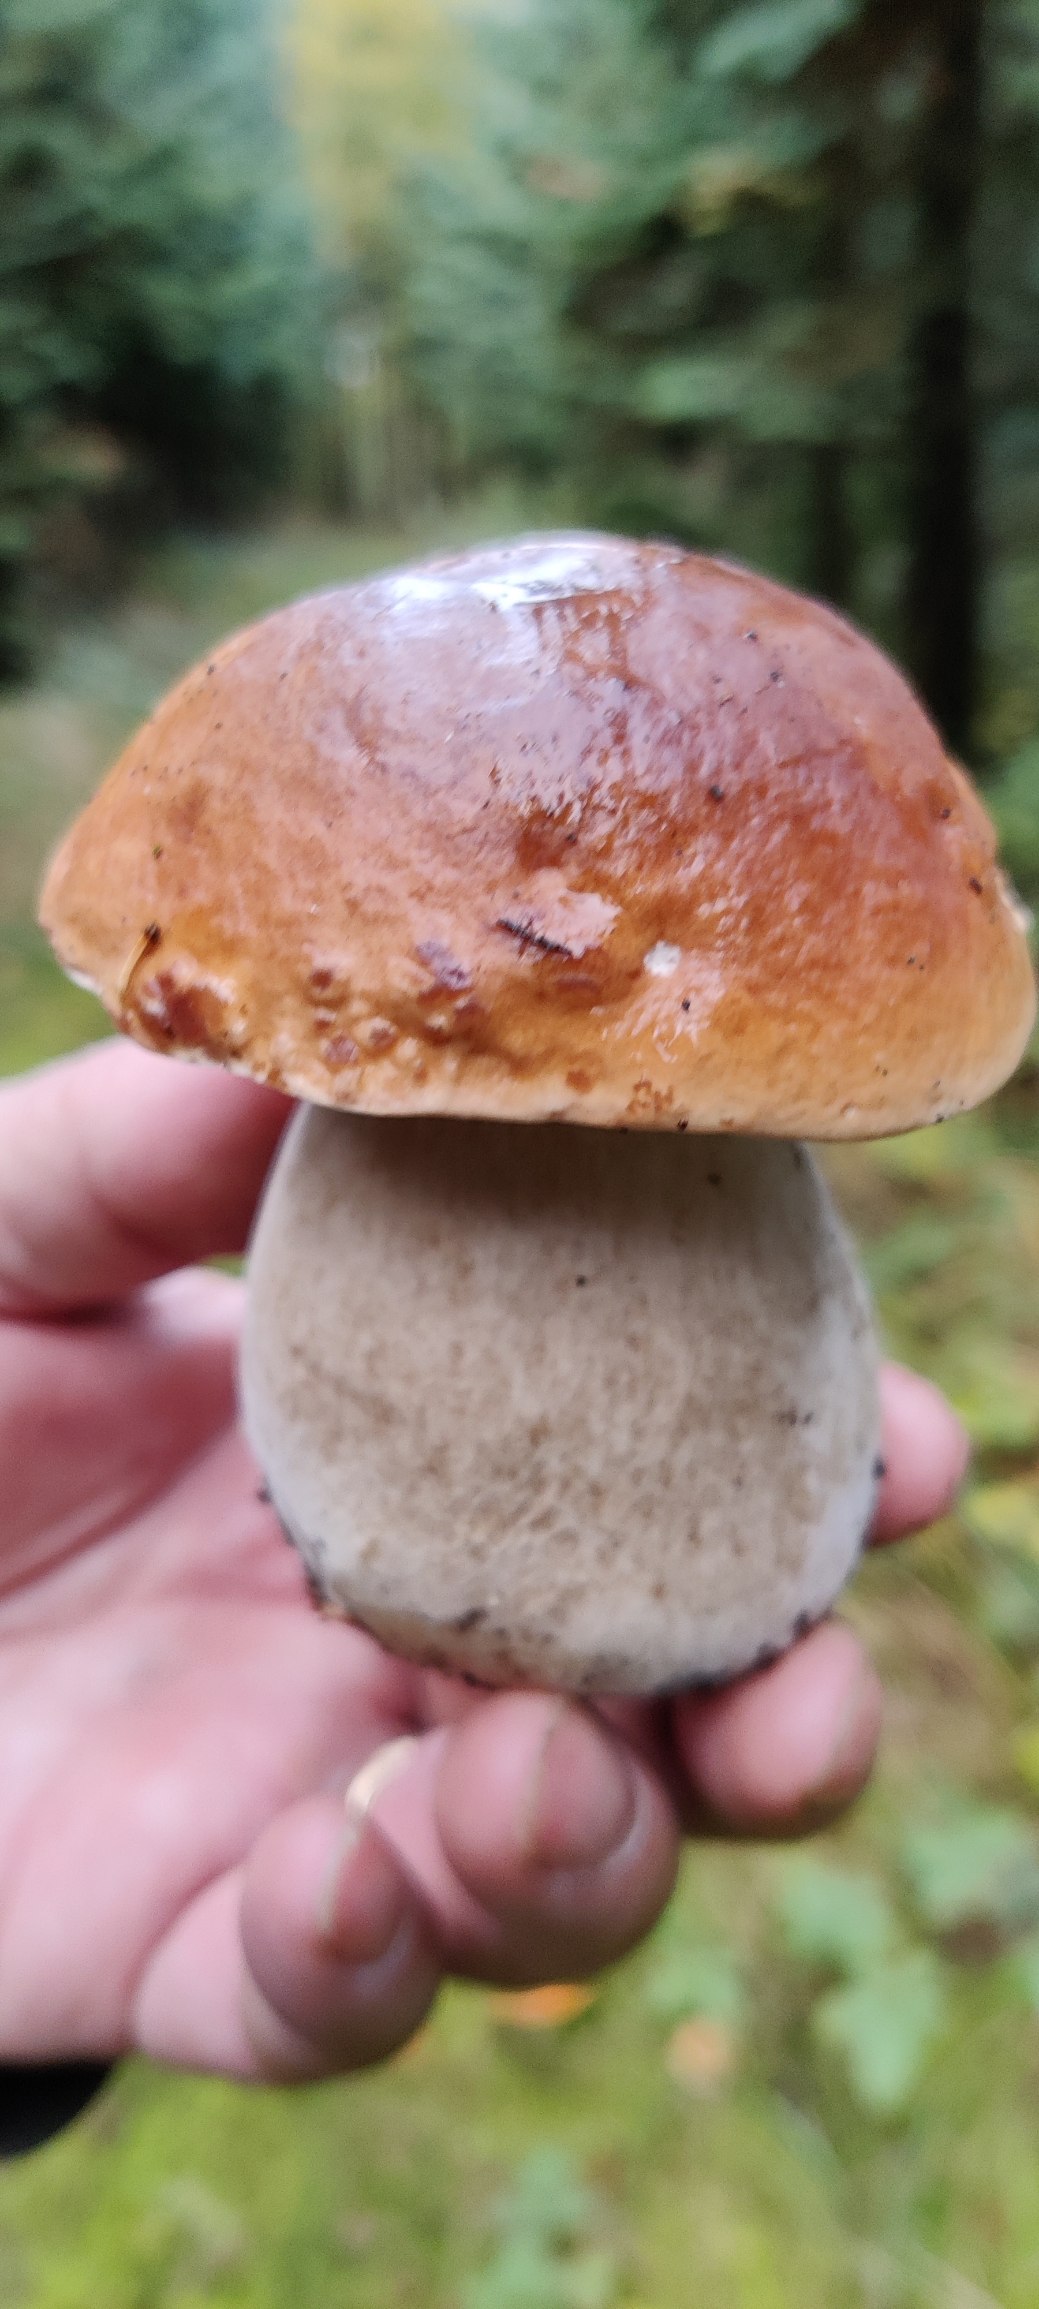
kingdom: Fungi
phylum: Basidiomycota
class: Agaricomycetes
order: Boletales
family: Boletaceae
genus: Boletus
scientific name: Boletus edulis
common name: Spiselig rørhat/karl johan
